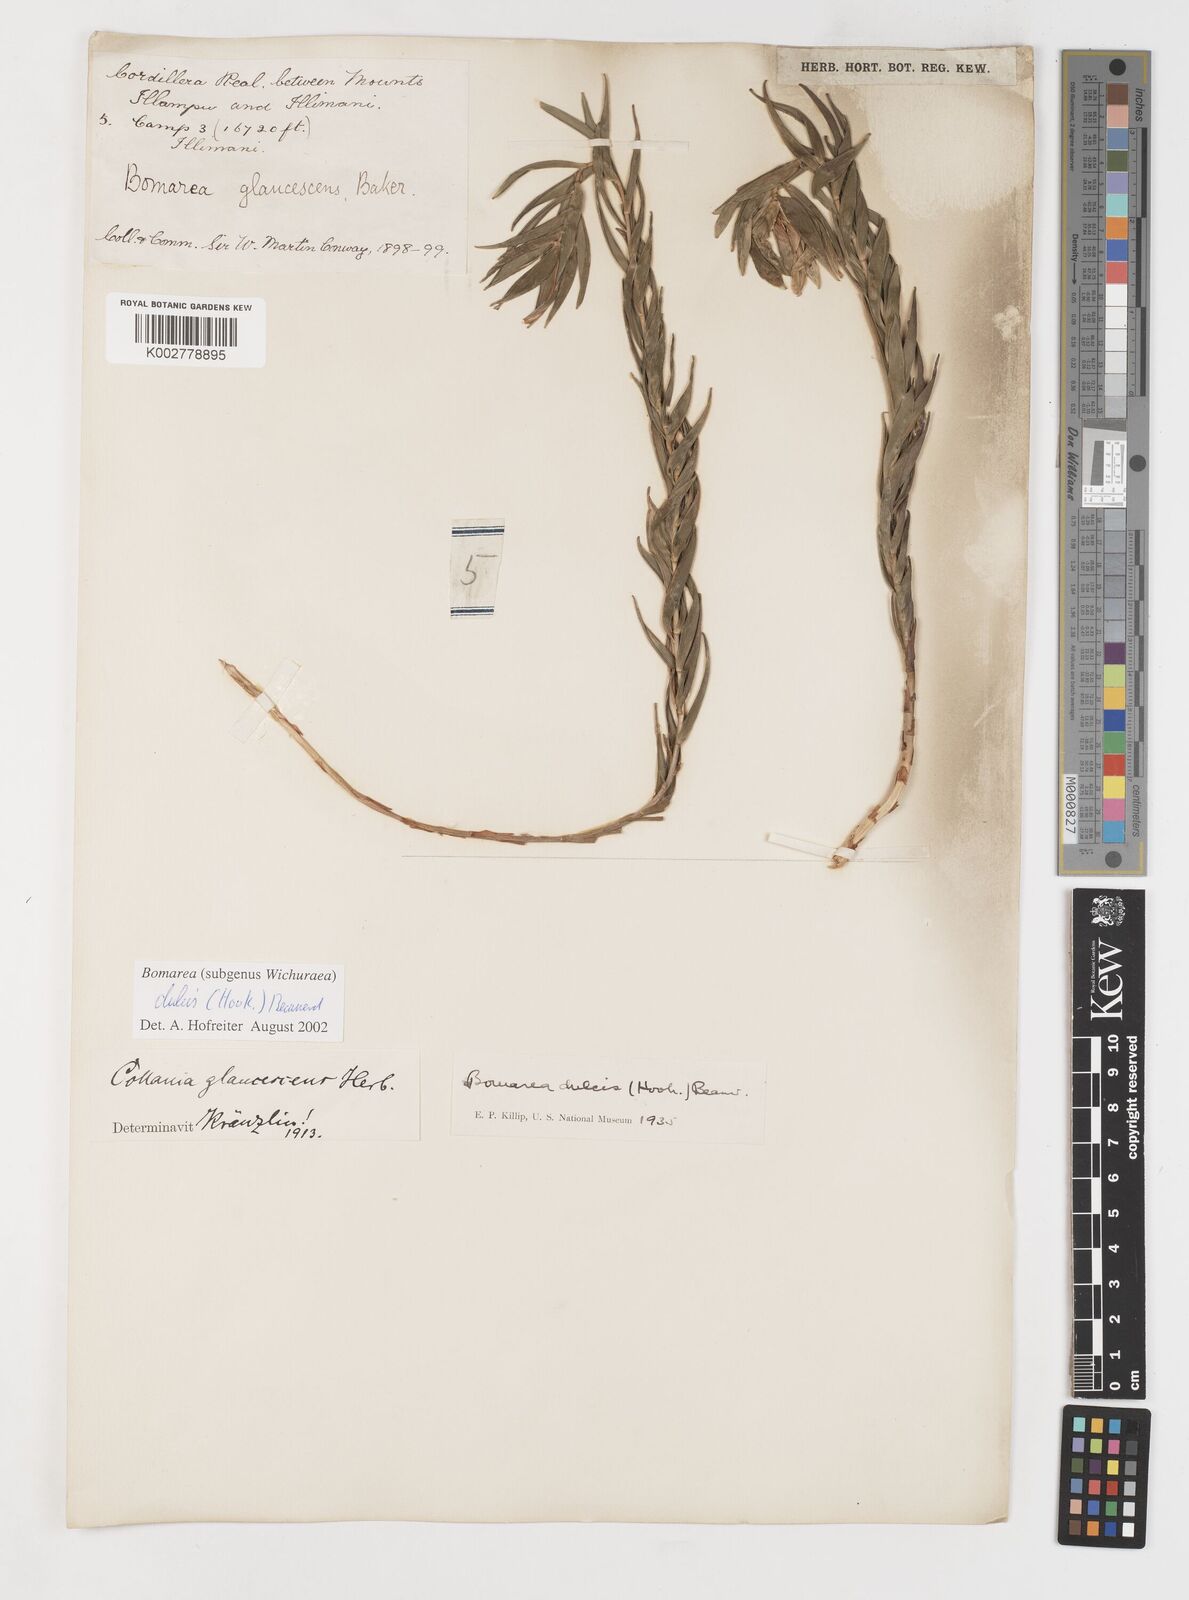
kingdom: Plantae
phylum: Tracheophyta
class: Liliopsida
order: Liliales
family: Alstroemeriaceae
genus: Bomarea
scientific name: Bomarea dulcis
